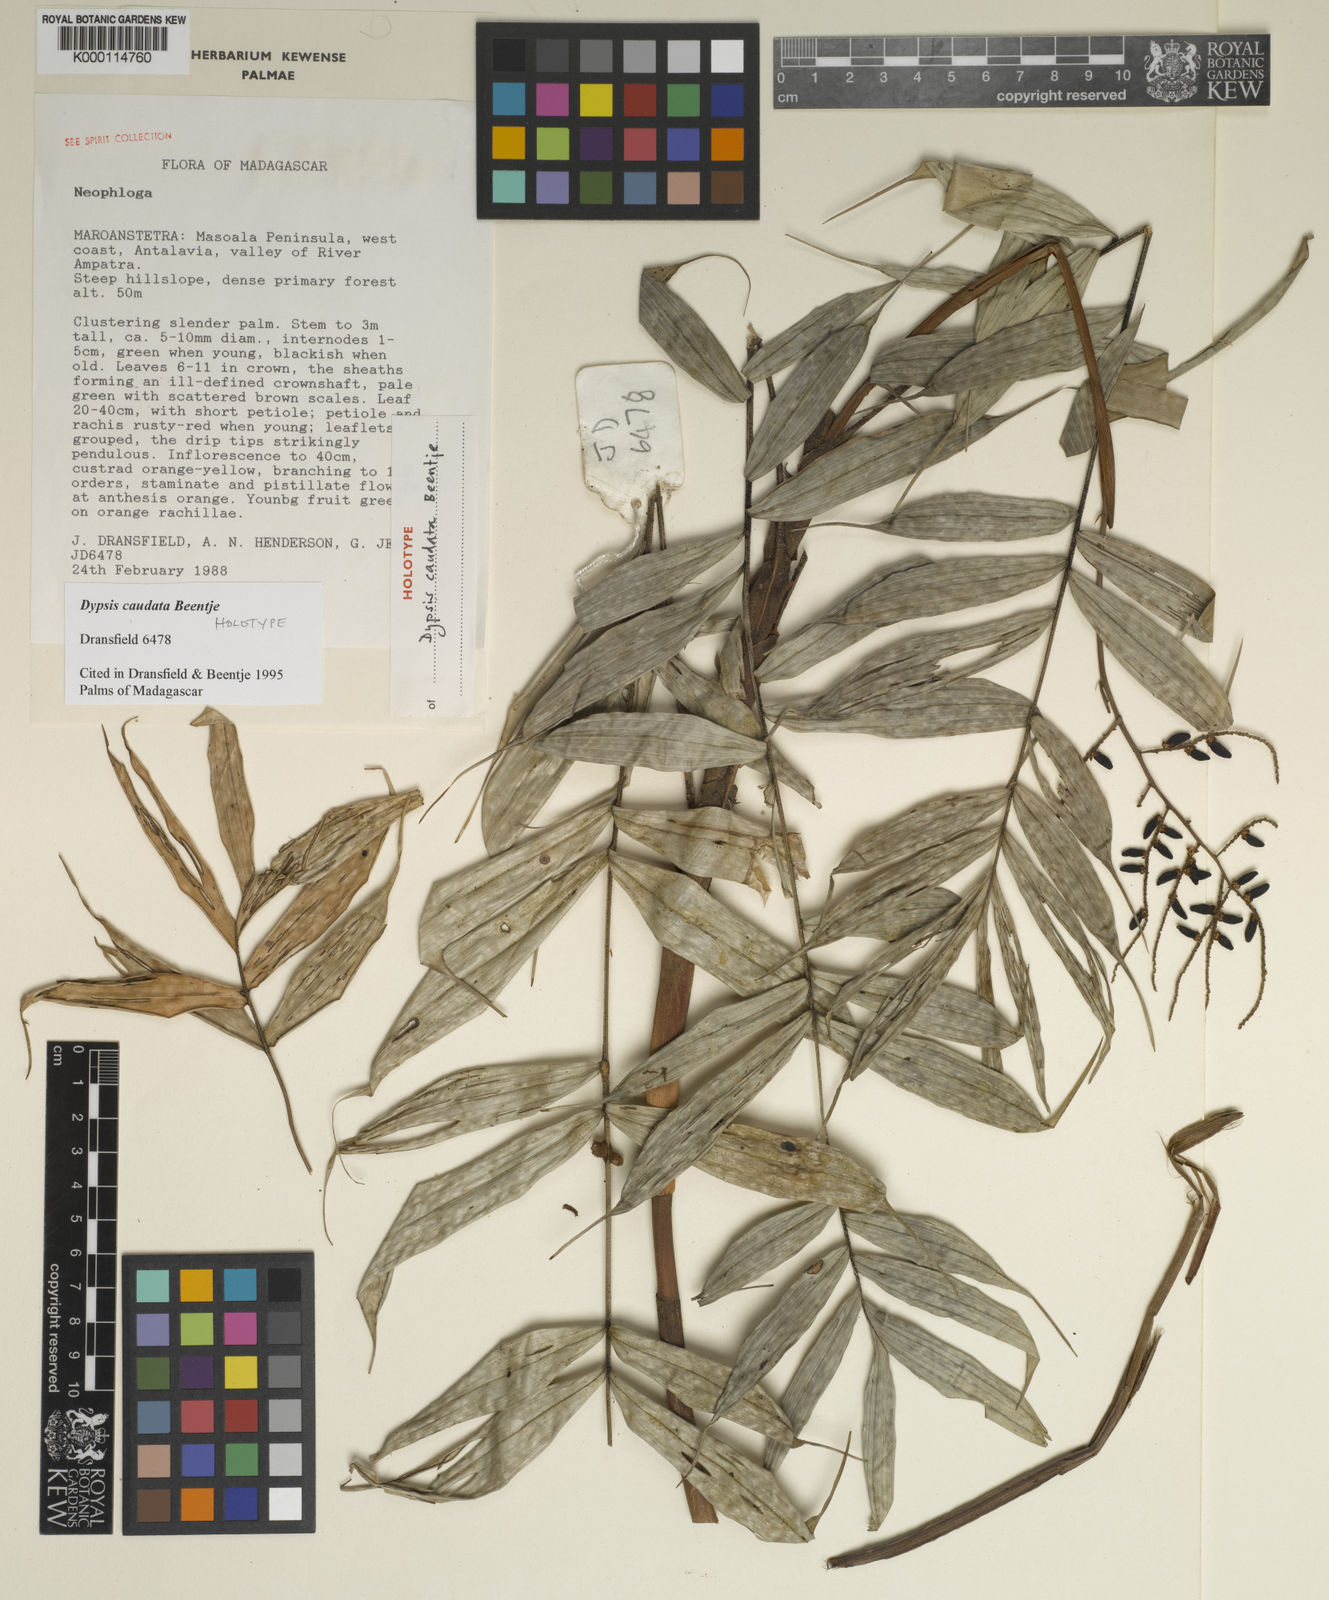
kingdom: Plantae
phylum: Tracheophyta
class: Liliopsida
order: Arecales
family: Arecaceae
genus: Dypsis
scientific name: Dypsis caudata
